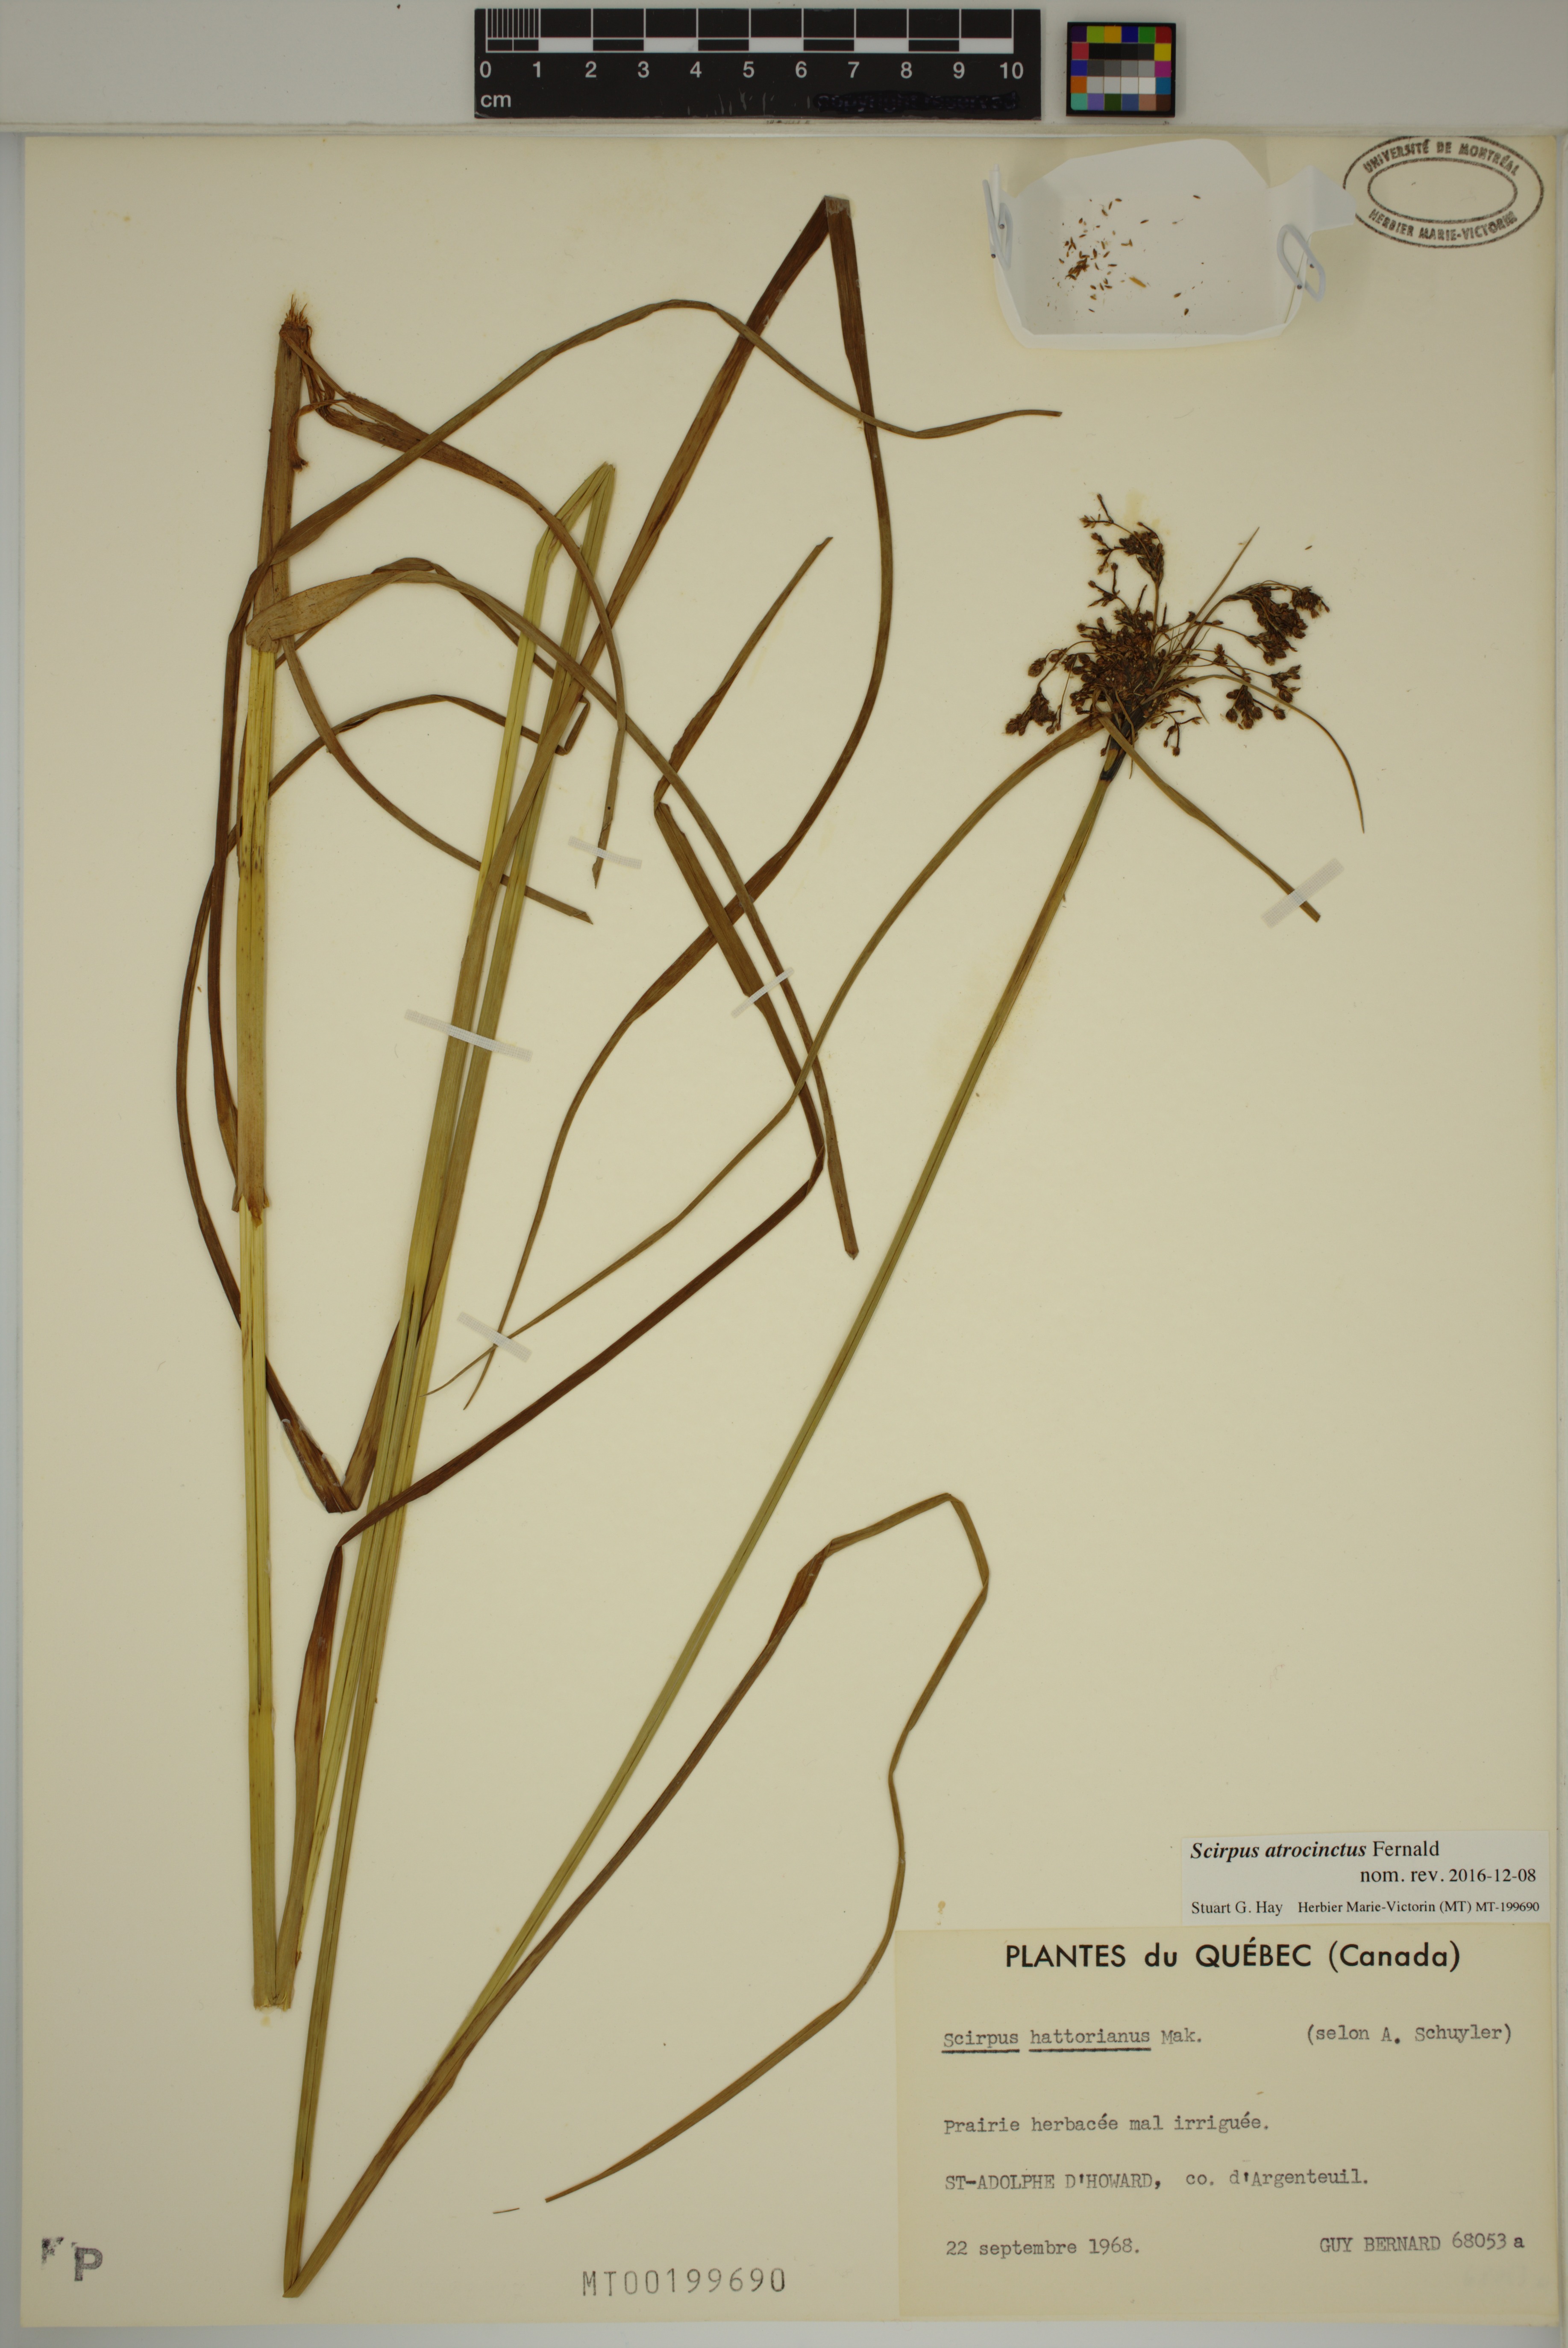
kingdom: Plantae
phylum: Tracheophyta
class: Liliopsida
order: Poales
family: Cyperaceae
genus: Scirpus
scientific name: Scirpus atrocinctus
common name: Black-girdled bulrush
